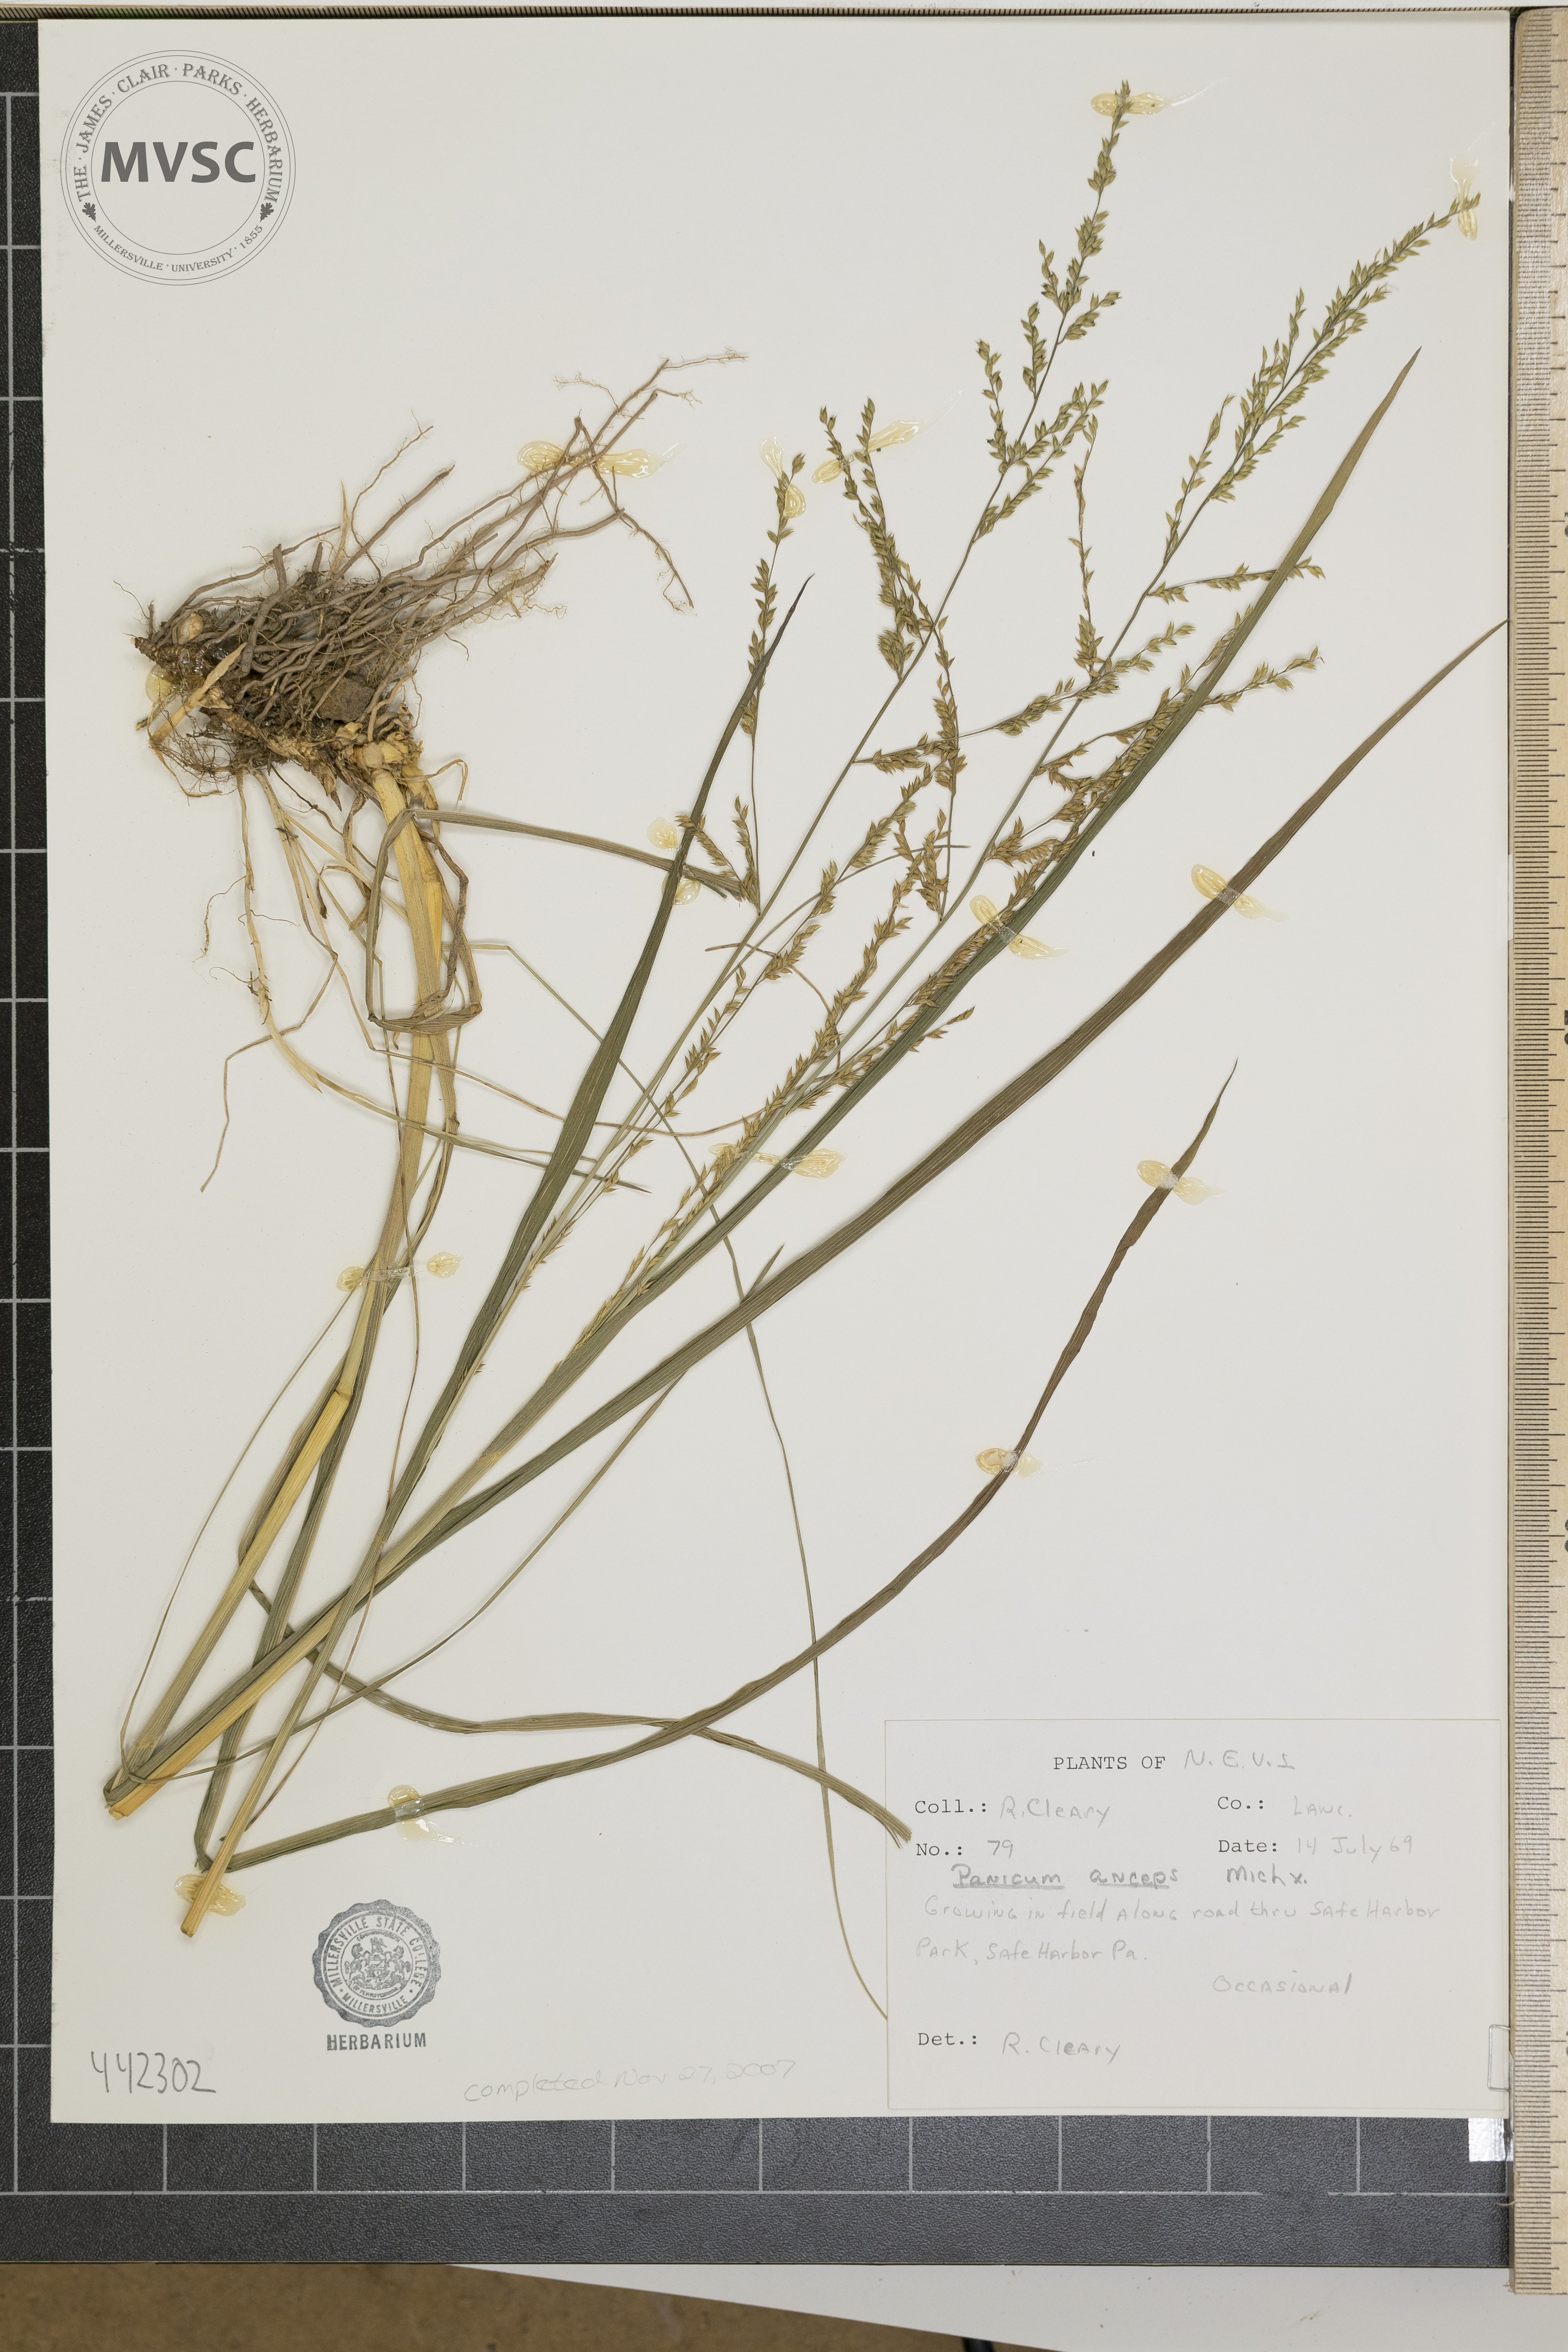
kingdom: Plantae
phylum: Tracheophyta
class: Liliopsida
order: Poales
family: Poaceae
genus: Coleataenia
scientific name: Coleataenia anceps
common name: Beaked panic grass
